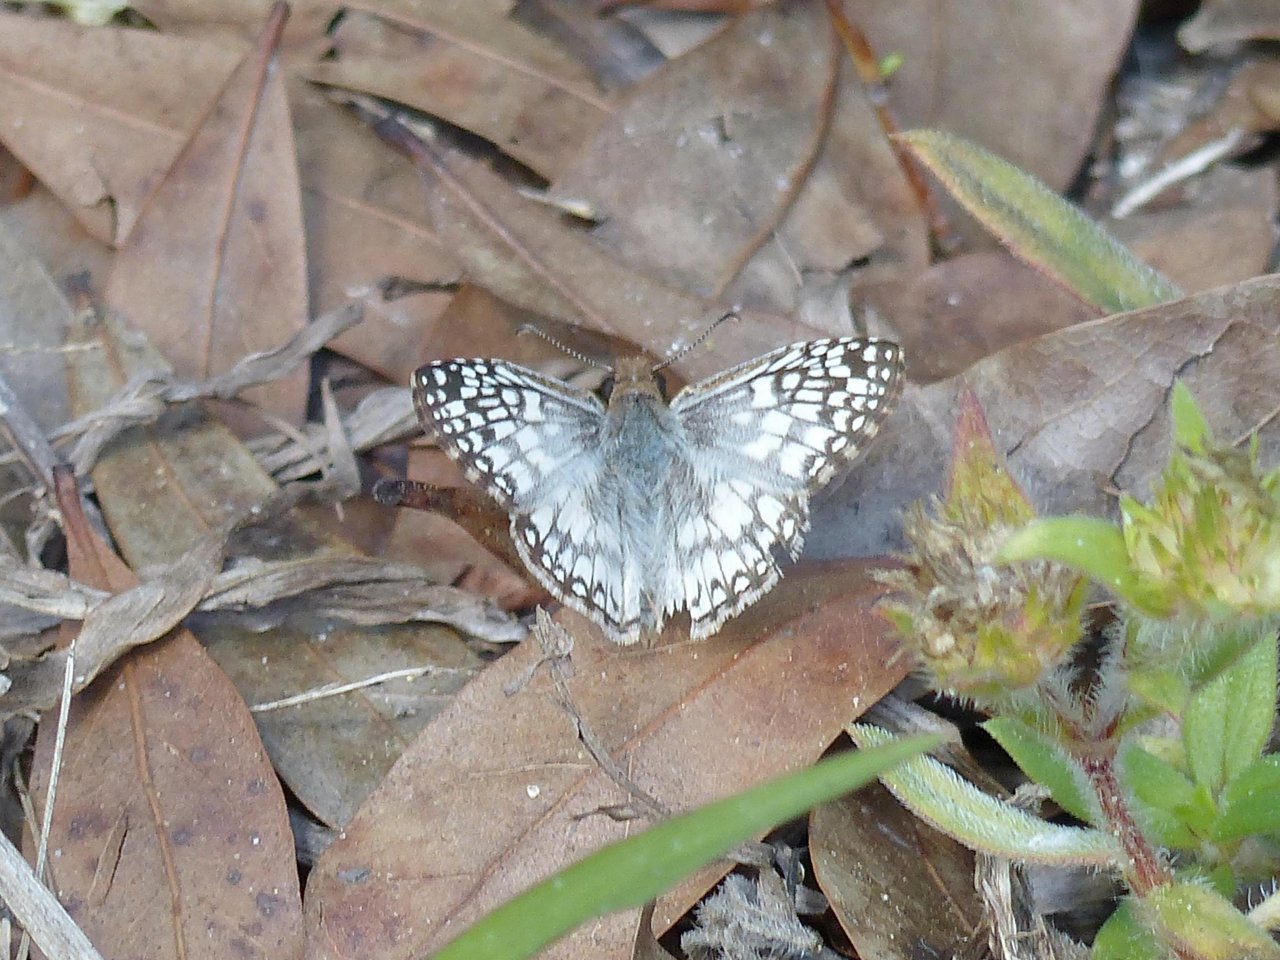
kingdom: Animalia
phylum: Arthropoda
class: Insecta
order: Lepidoptera
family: Hesperiidae
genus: Pyrgus
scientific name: Pyrgus oileus
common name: Tropical Checkered-Skipper
